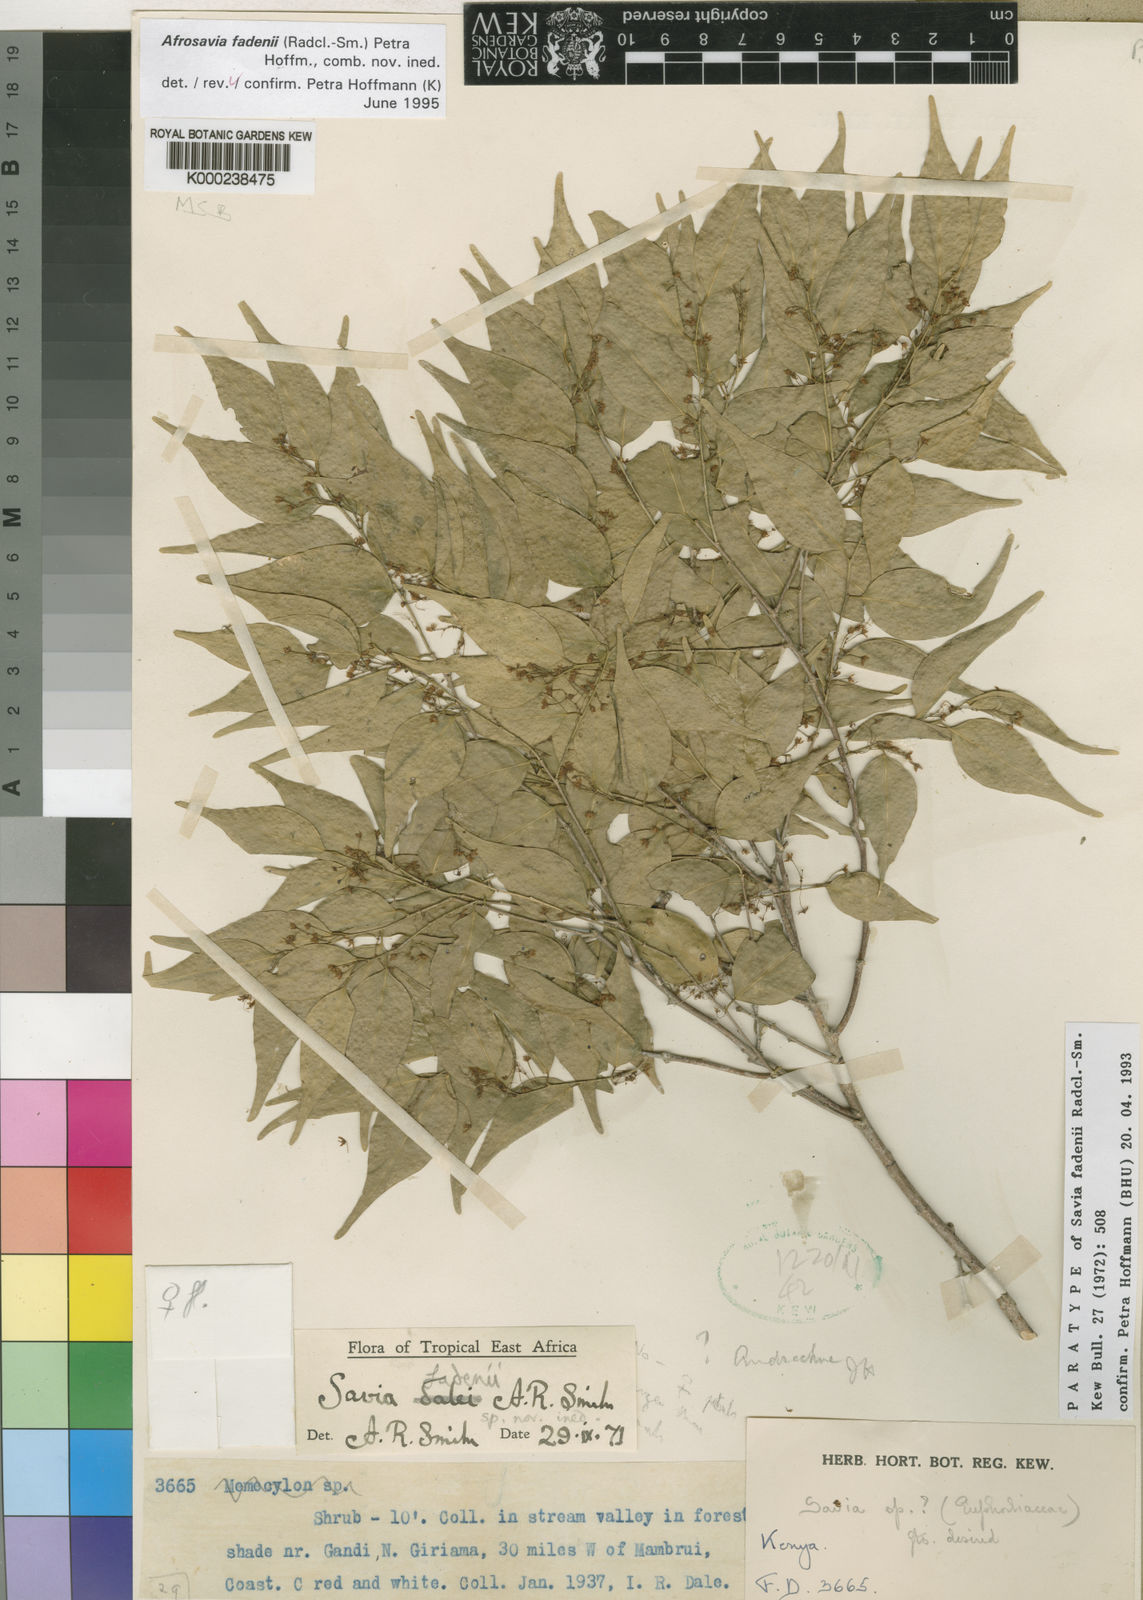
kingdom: Plantae
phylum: Tracheophyta
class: Magnoliopsida
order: Malpighiales
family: Phyllanthaceae
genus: Wielandia
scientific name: Wielandia fadenii
